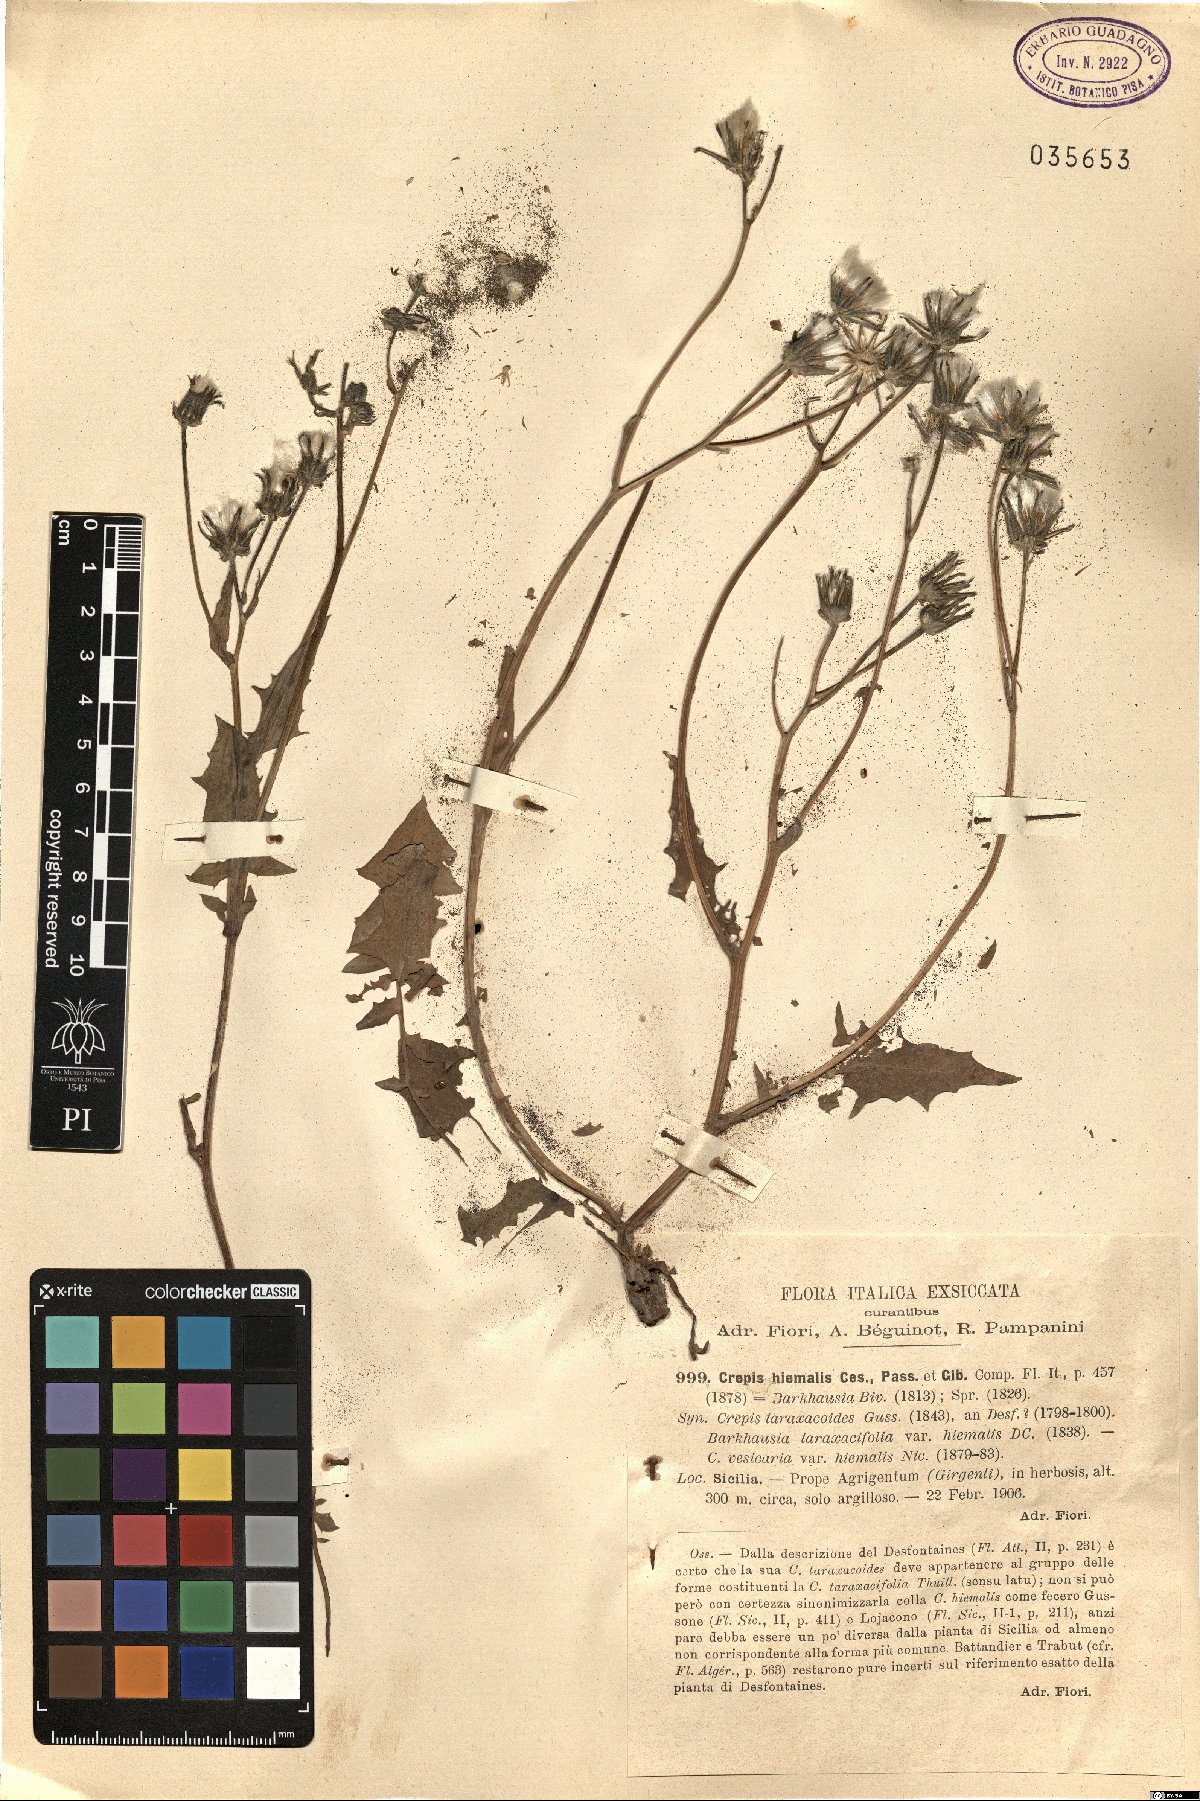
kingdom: Plantae
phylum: Tracheophyta
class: Magnoliopsida
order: Asterales
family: Asteraceae
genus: Crepis
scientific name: Crepis vesicaria
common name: Beaked hawksbeard
